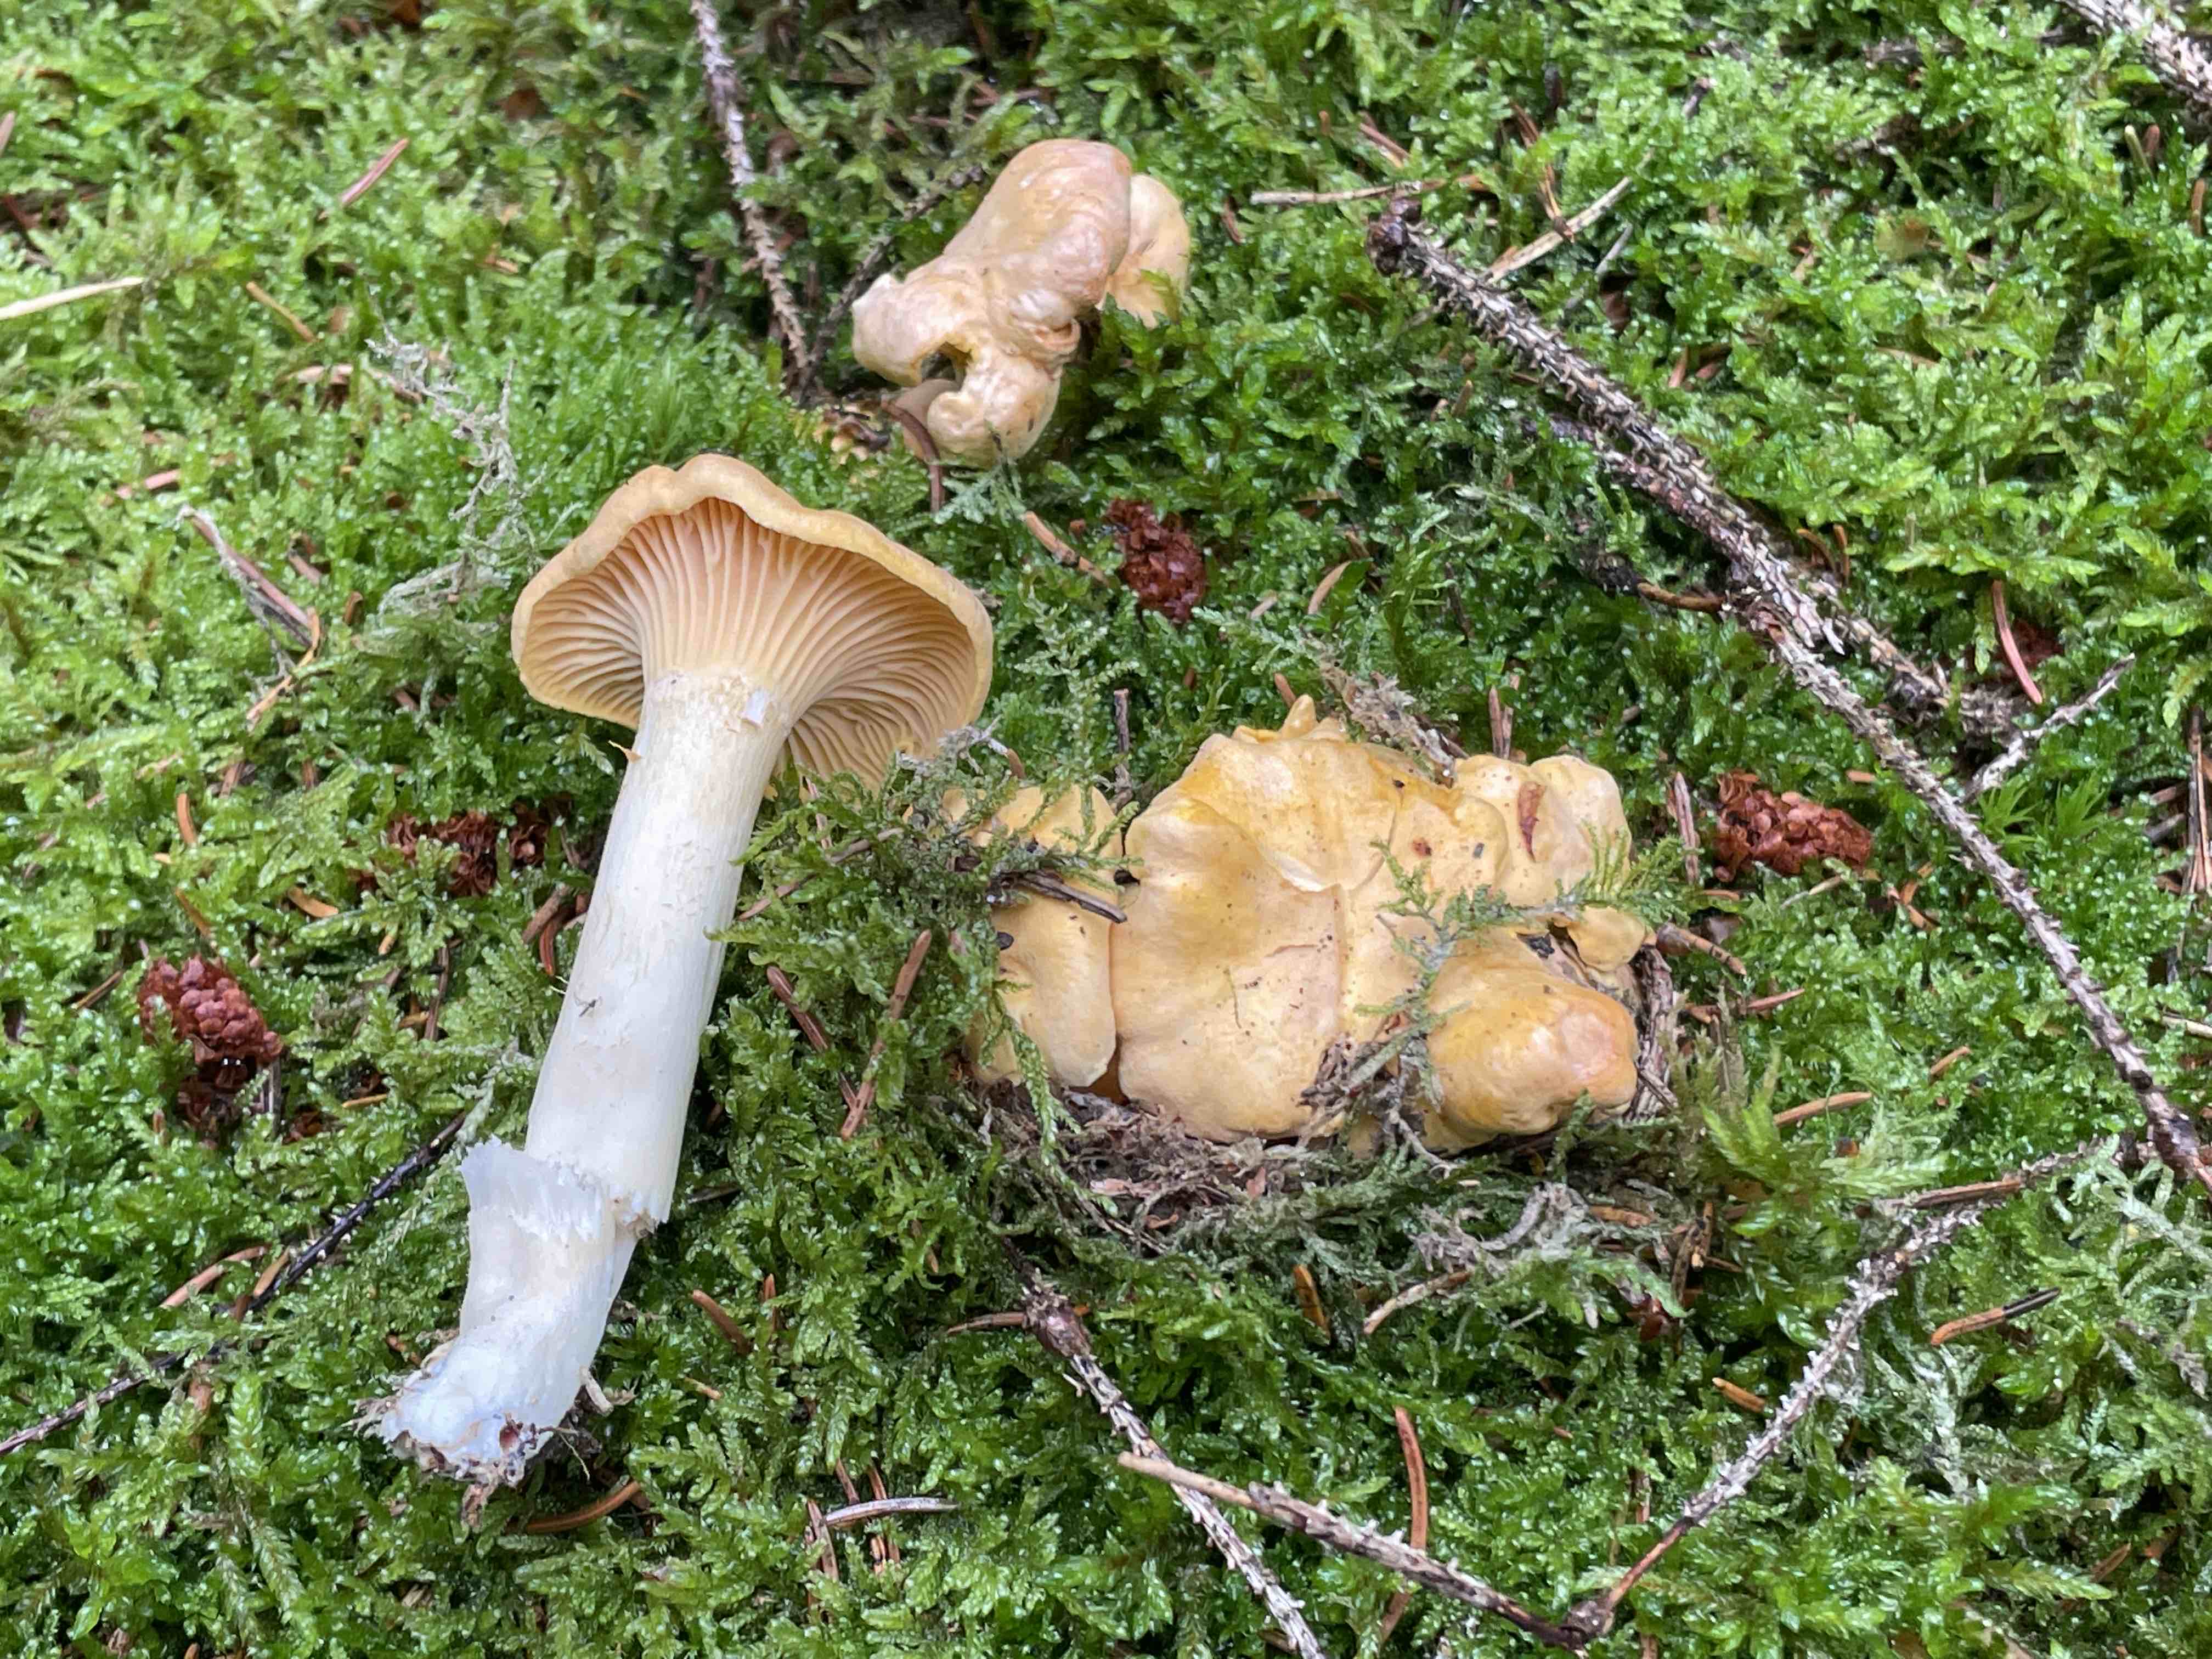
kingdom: Fungi
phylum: Basidiomycota
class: Agaricomycetes
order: Cantharellales
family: Hydnaceae
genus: Cantharellus
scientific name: Cantharellus cibarius
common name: almindelig kantarel
